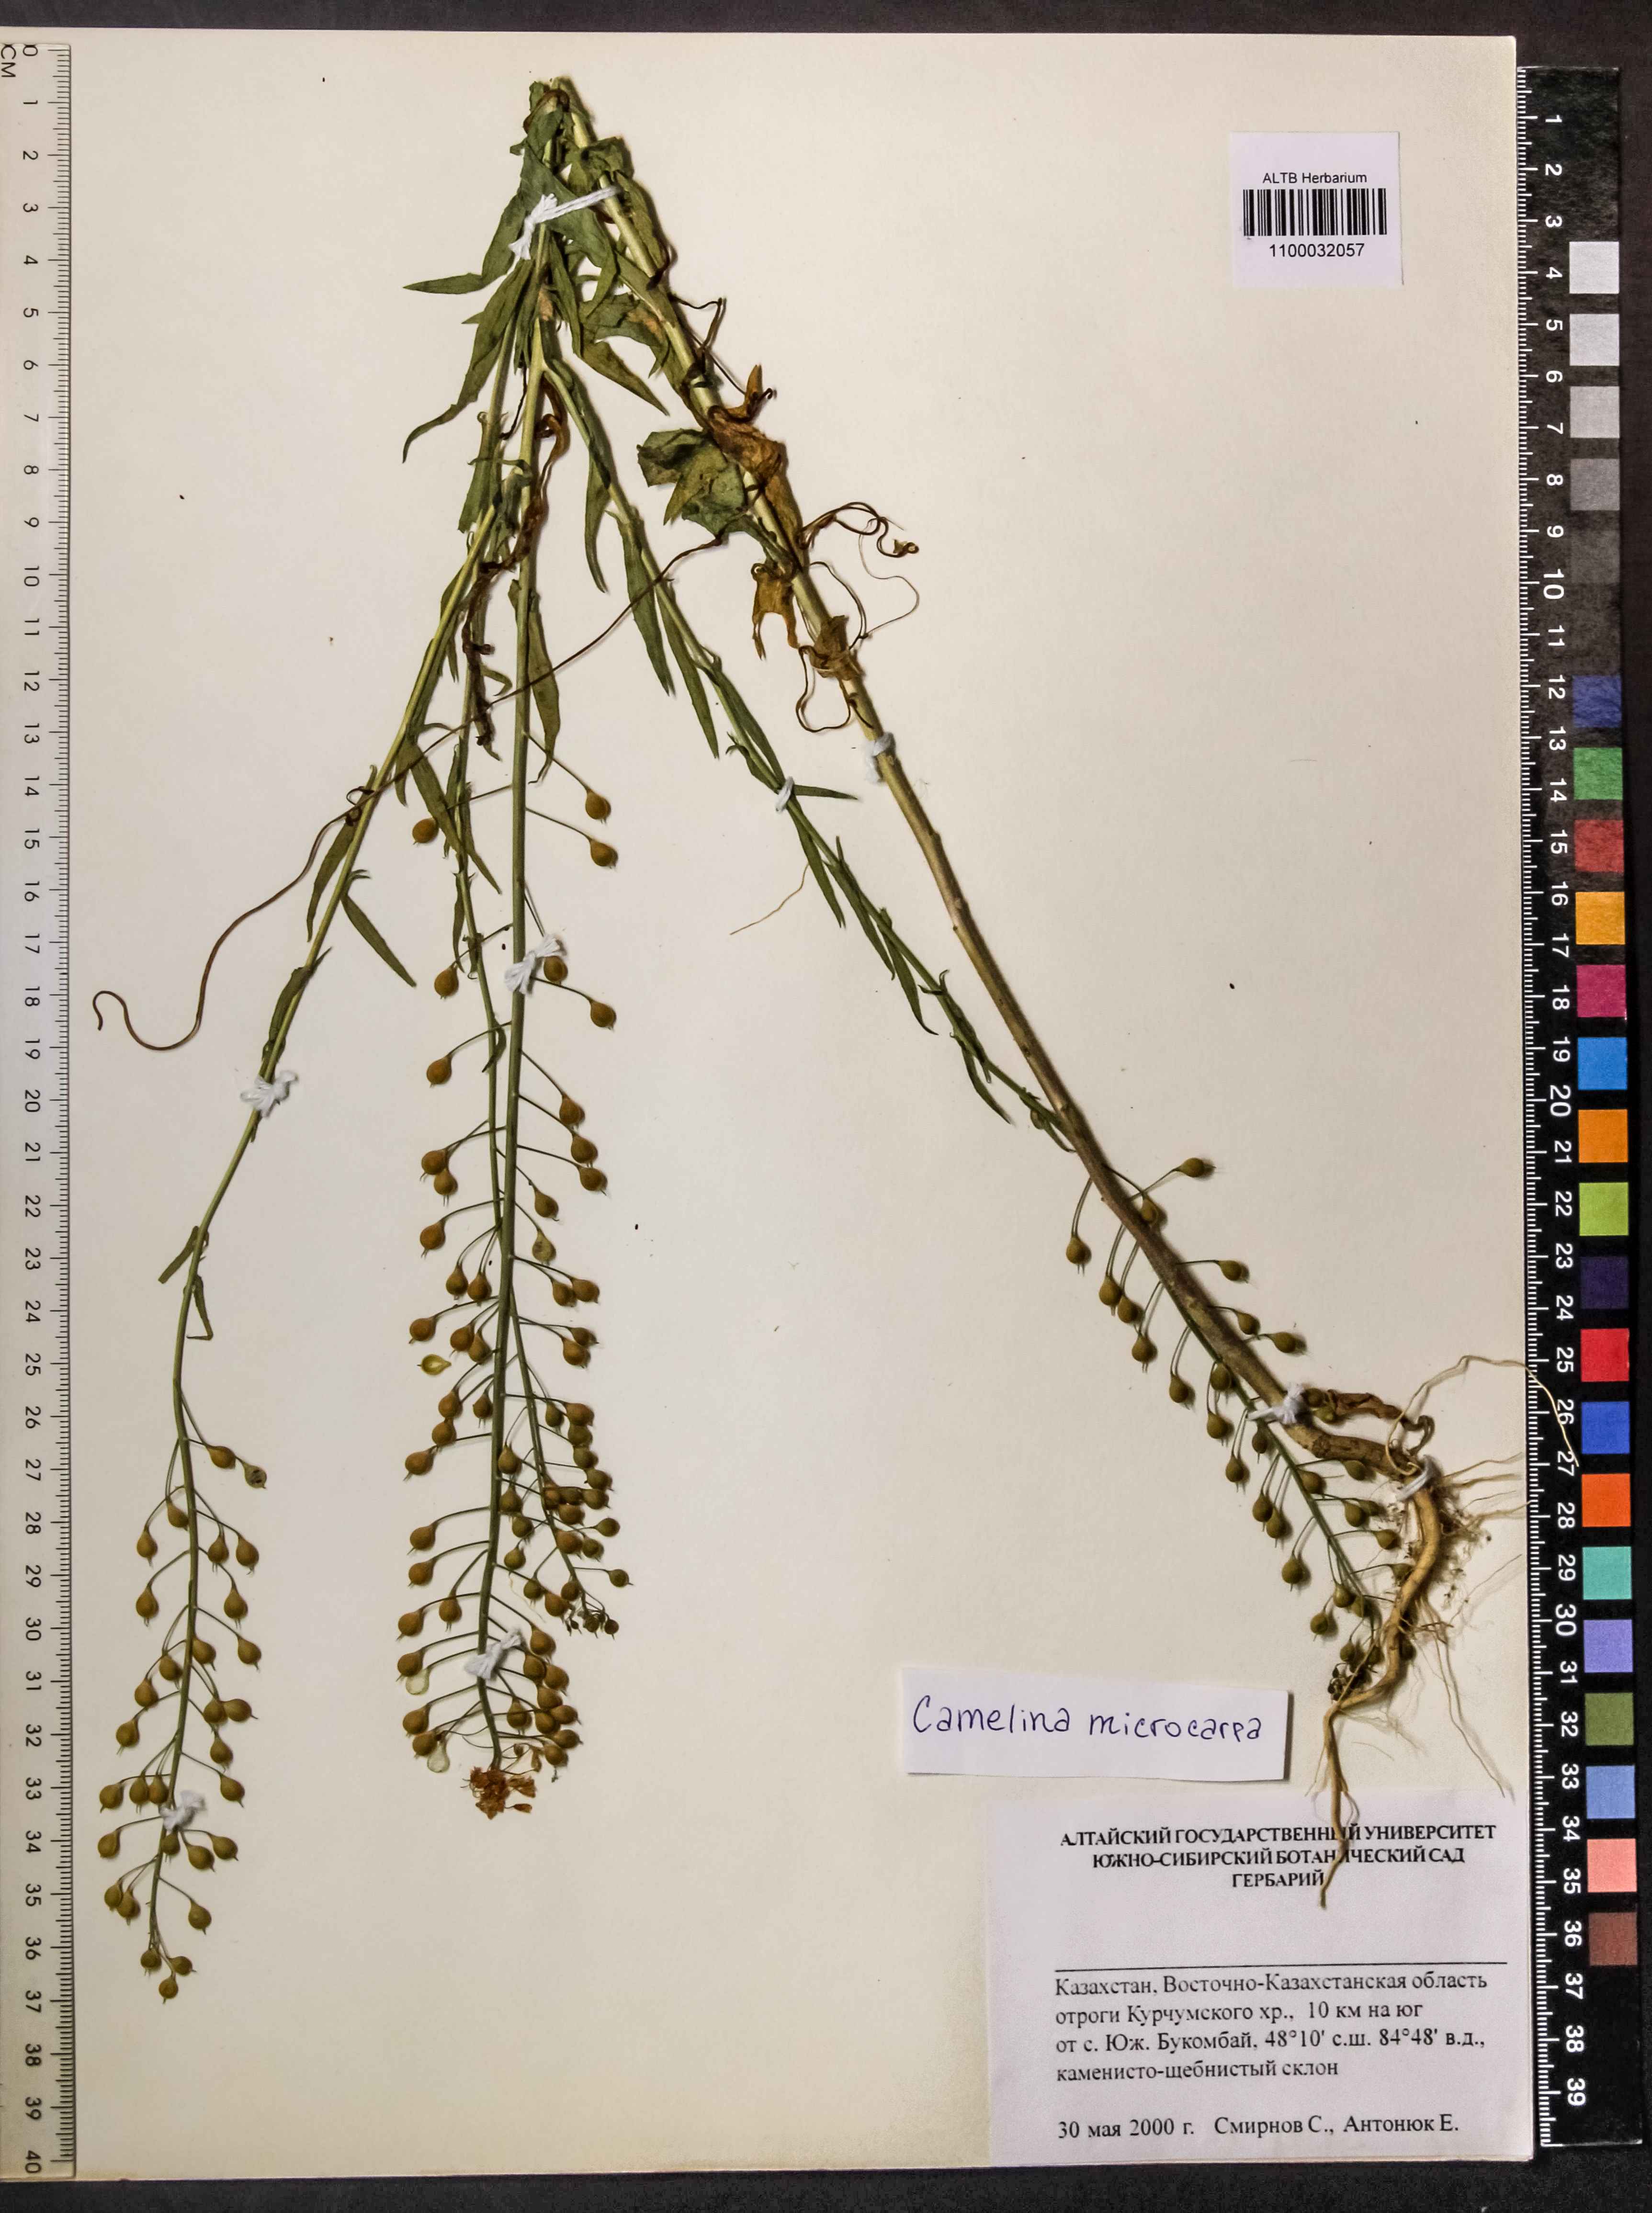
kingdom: Plantae
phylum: Tracheophyta
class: Magnoliopsida
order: Brassicales
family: Brassicaceae
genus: Camelina
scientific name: Camelina microcarpa
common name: Lesser gold-of-pleasure
